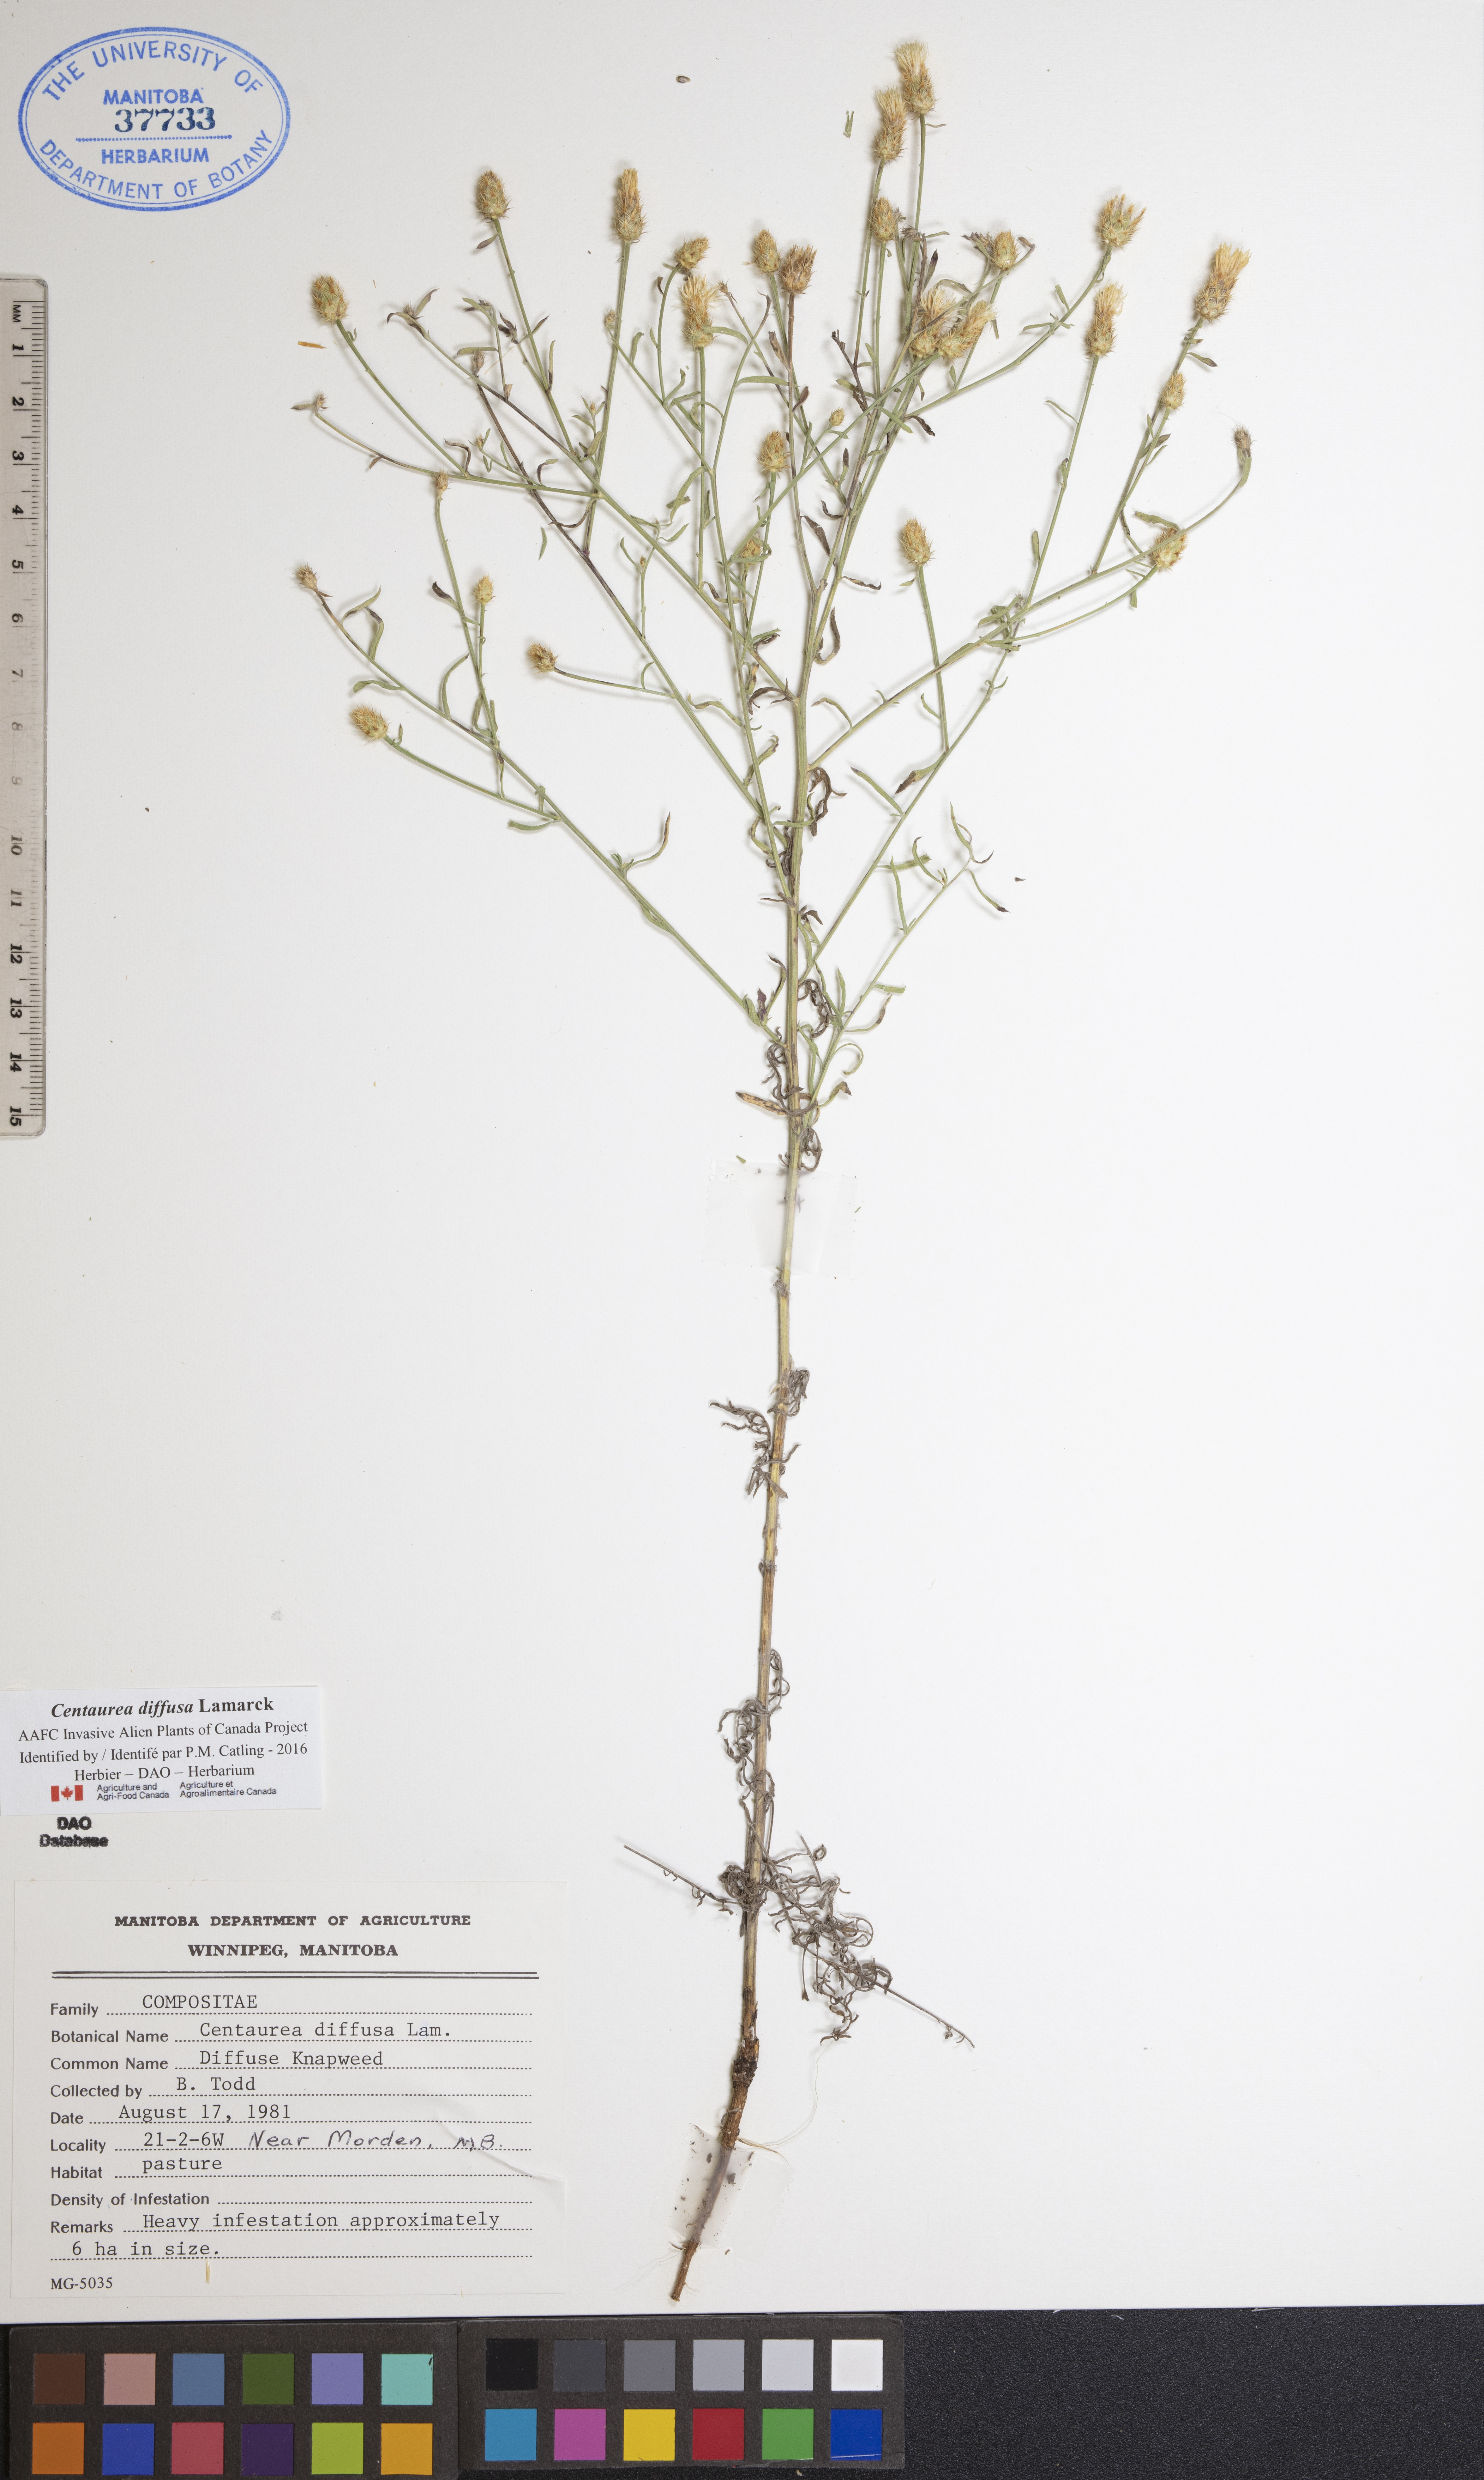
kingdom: Plantae
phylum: Tracheophyta
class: Magnoliopsida
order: Asterales
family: Asteraceae
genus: Centaurea
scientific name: Centaurea diffusa
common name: Diffuse knapweed
